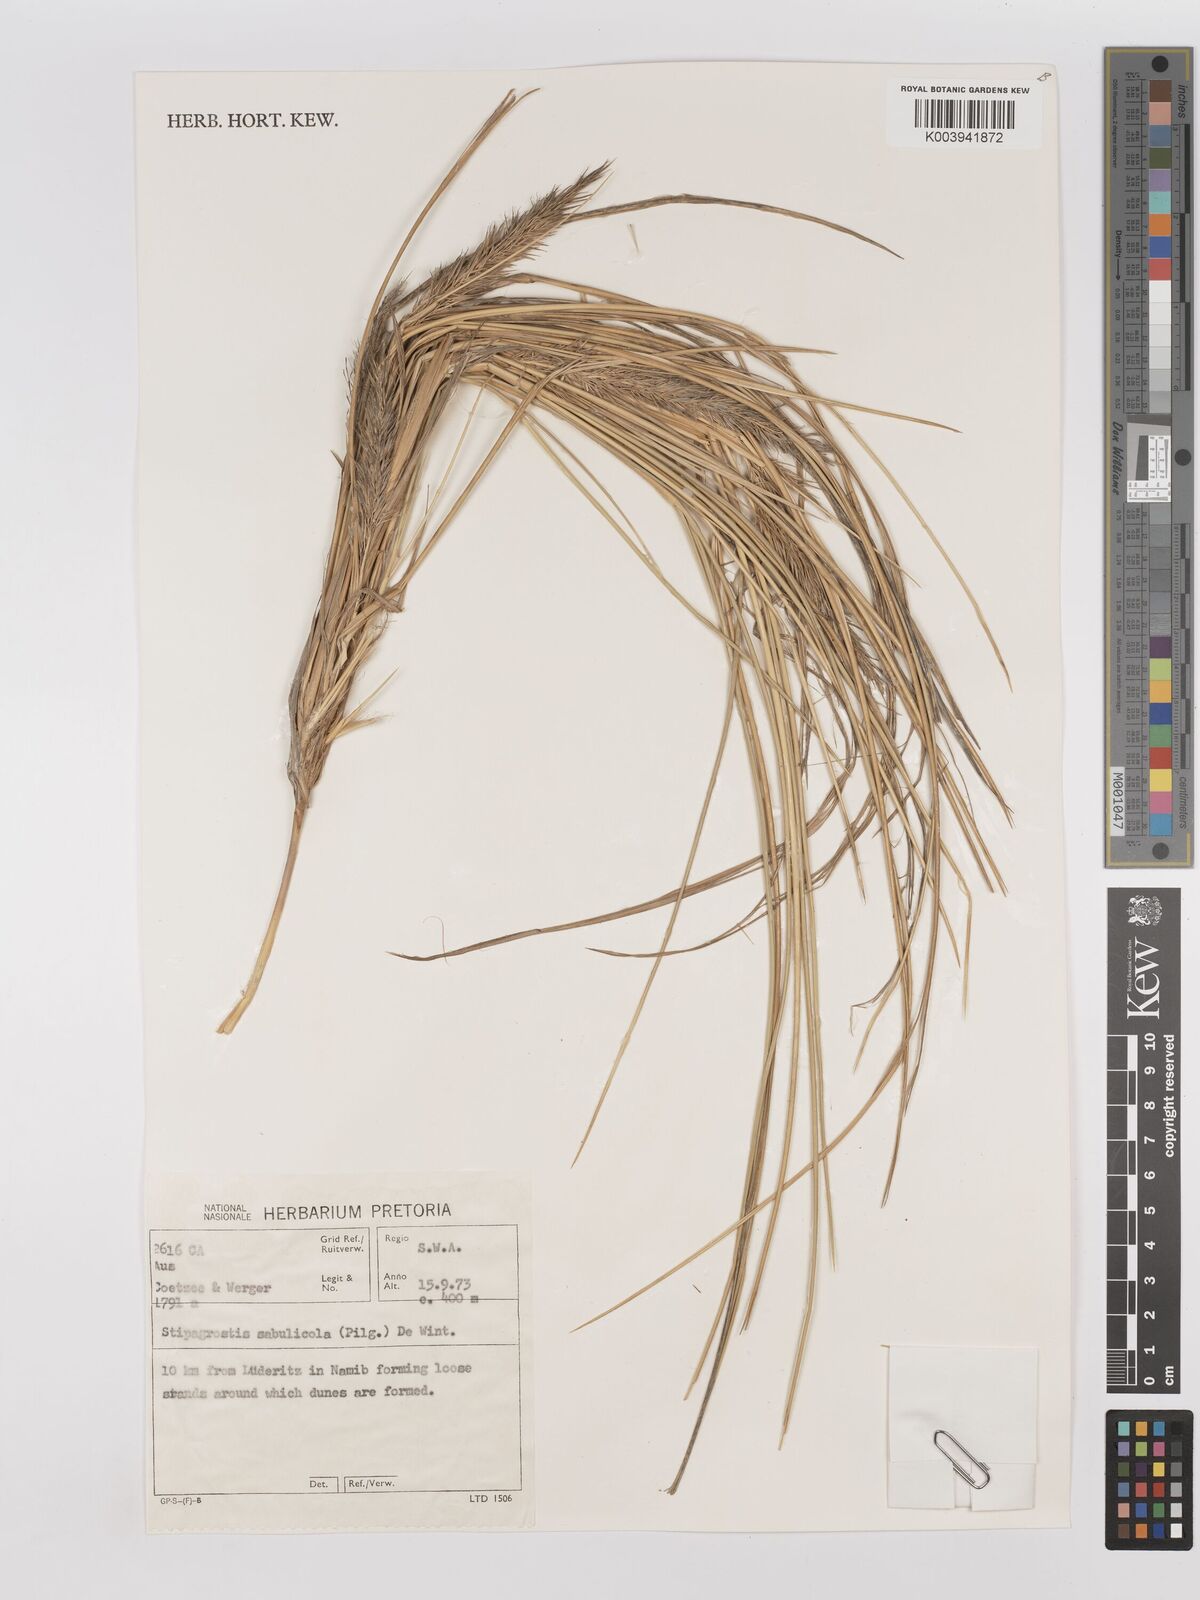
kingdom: Plantae
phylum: Tracheophyta
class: Liliopsida
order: Poales
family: Poaceae
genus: Stipagrostis
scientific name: Stipagrostis sabulicola
